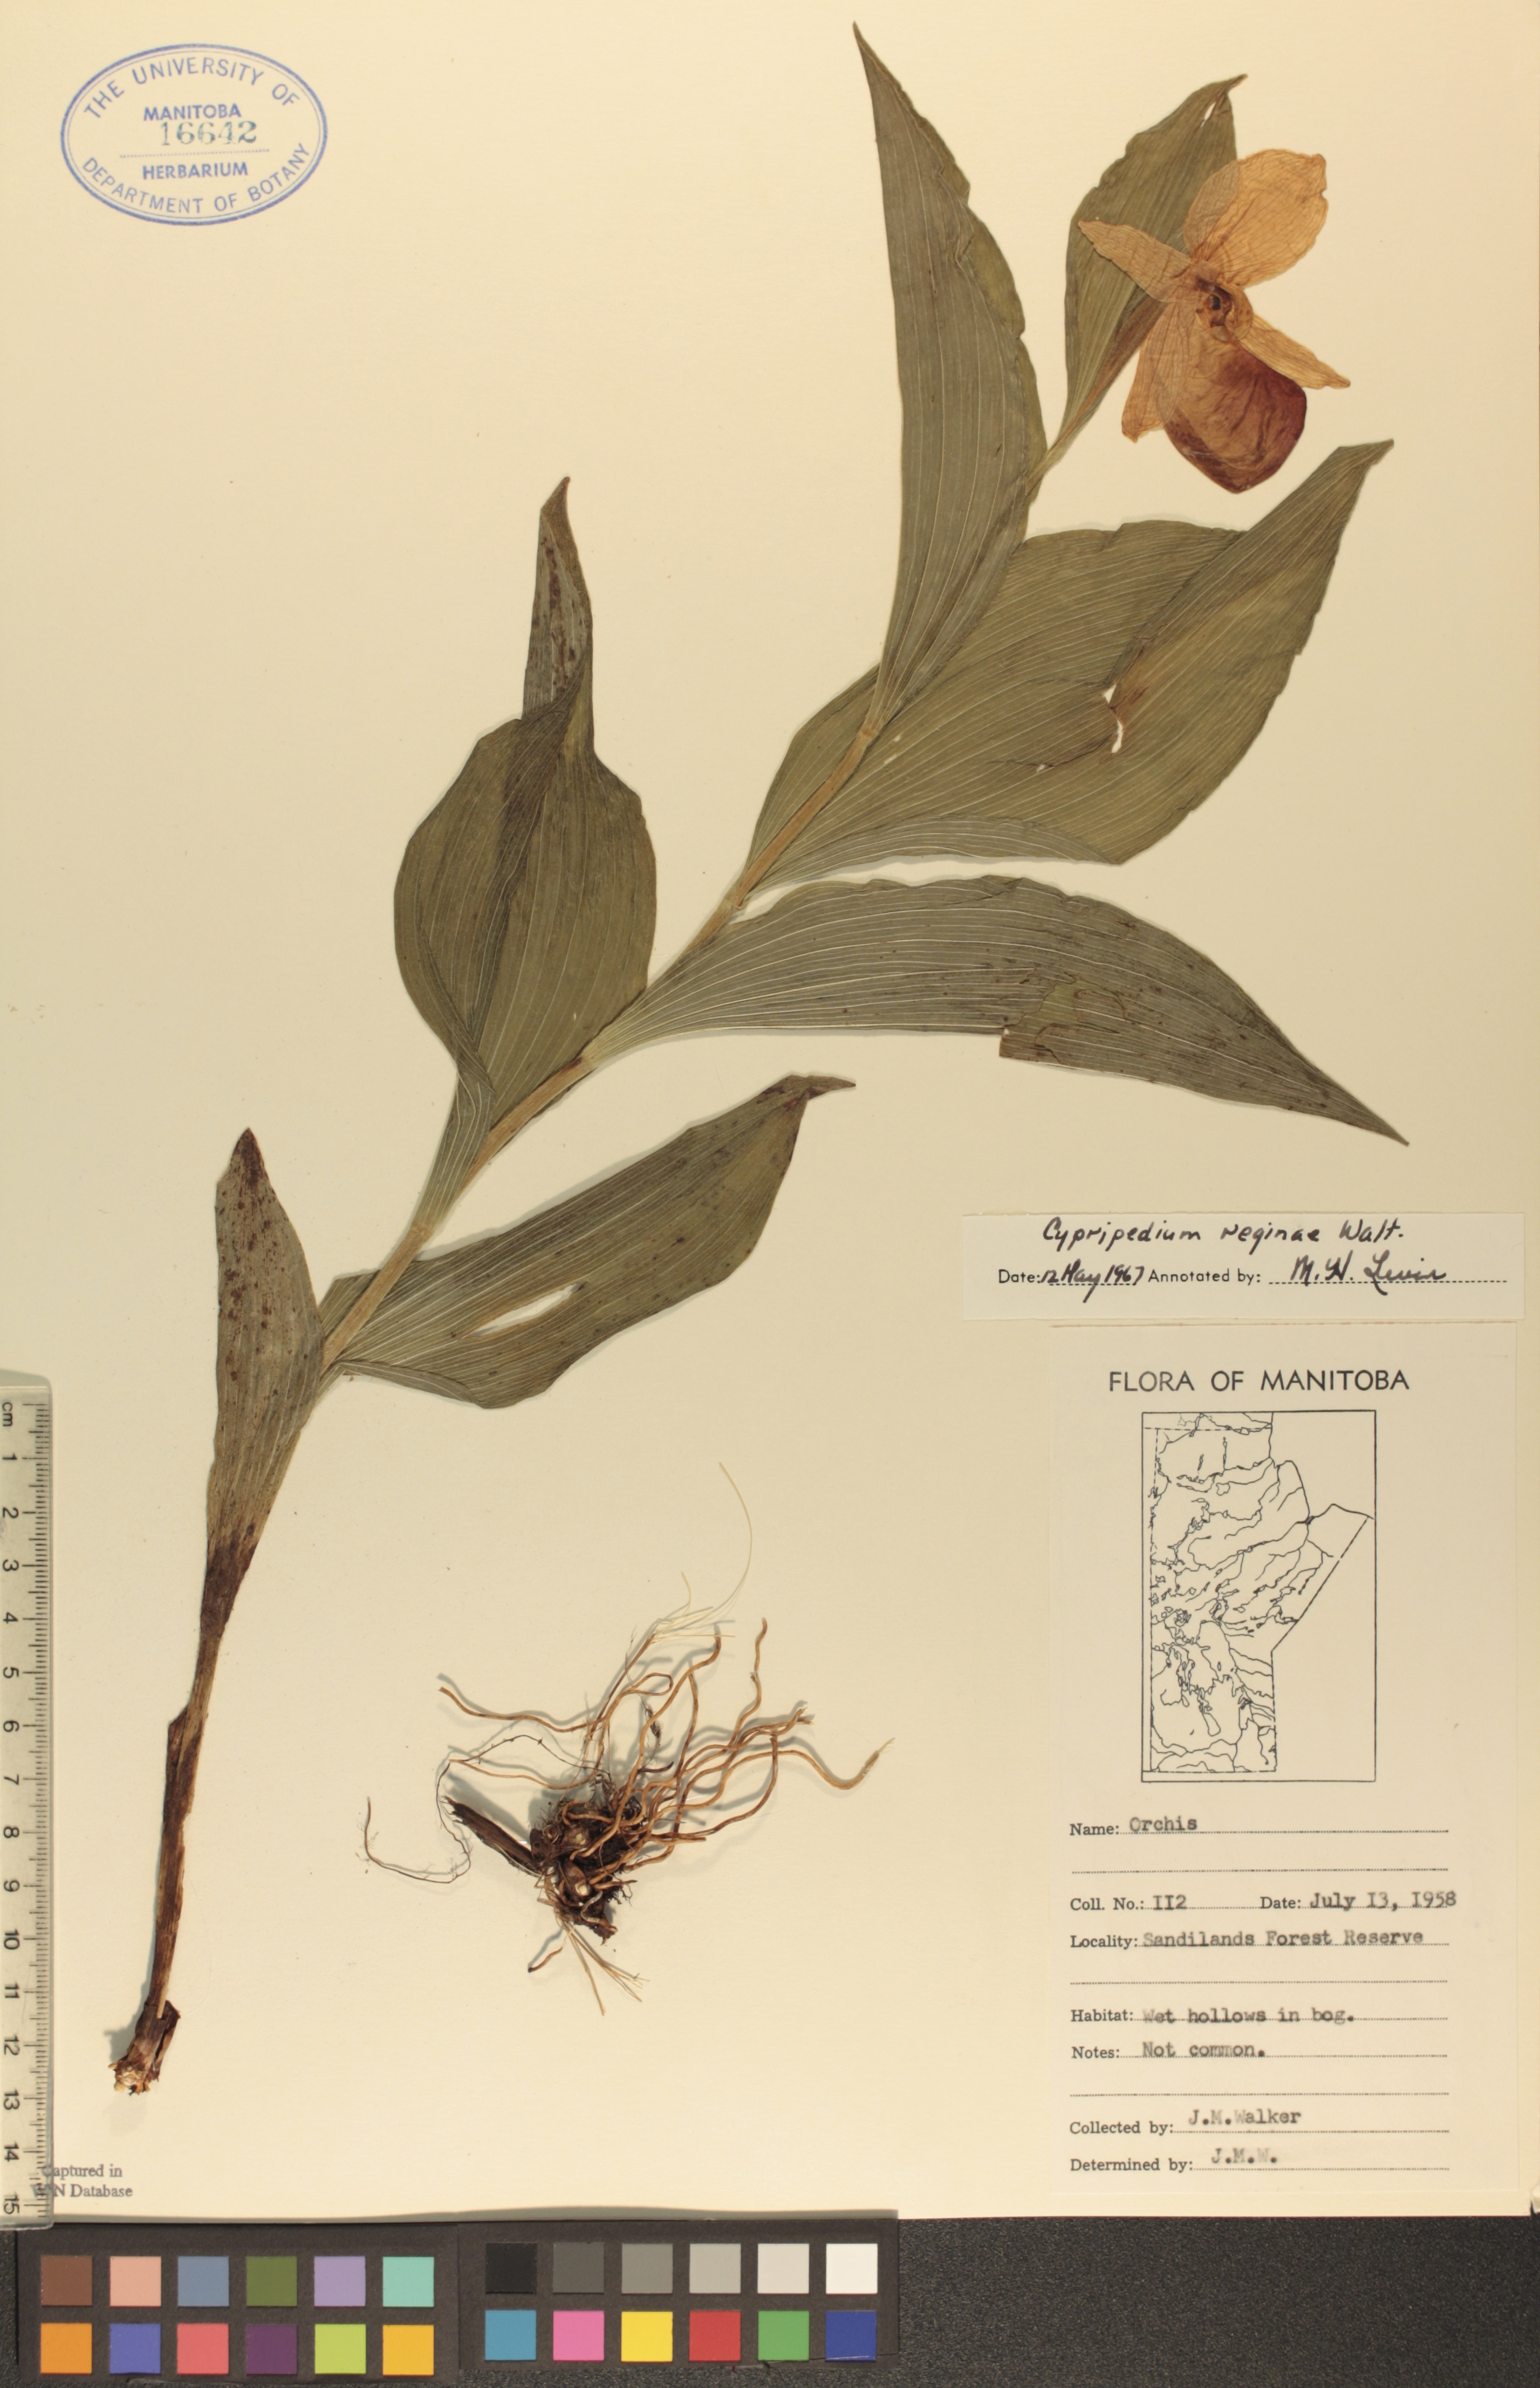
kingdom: Plantae
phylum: Tracheophyta
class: Liliopsida
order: Asparagales
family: Orchidaceae
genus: Cypripedium
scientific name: Cypripedium reginae
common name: Queen lady's-slipper
